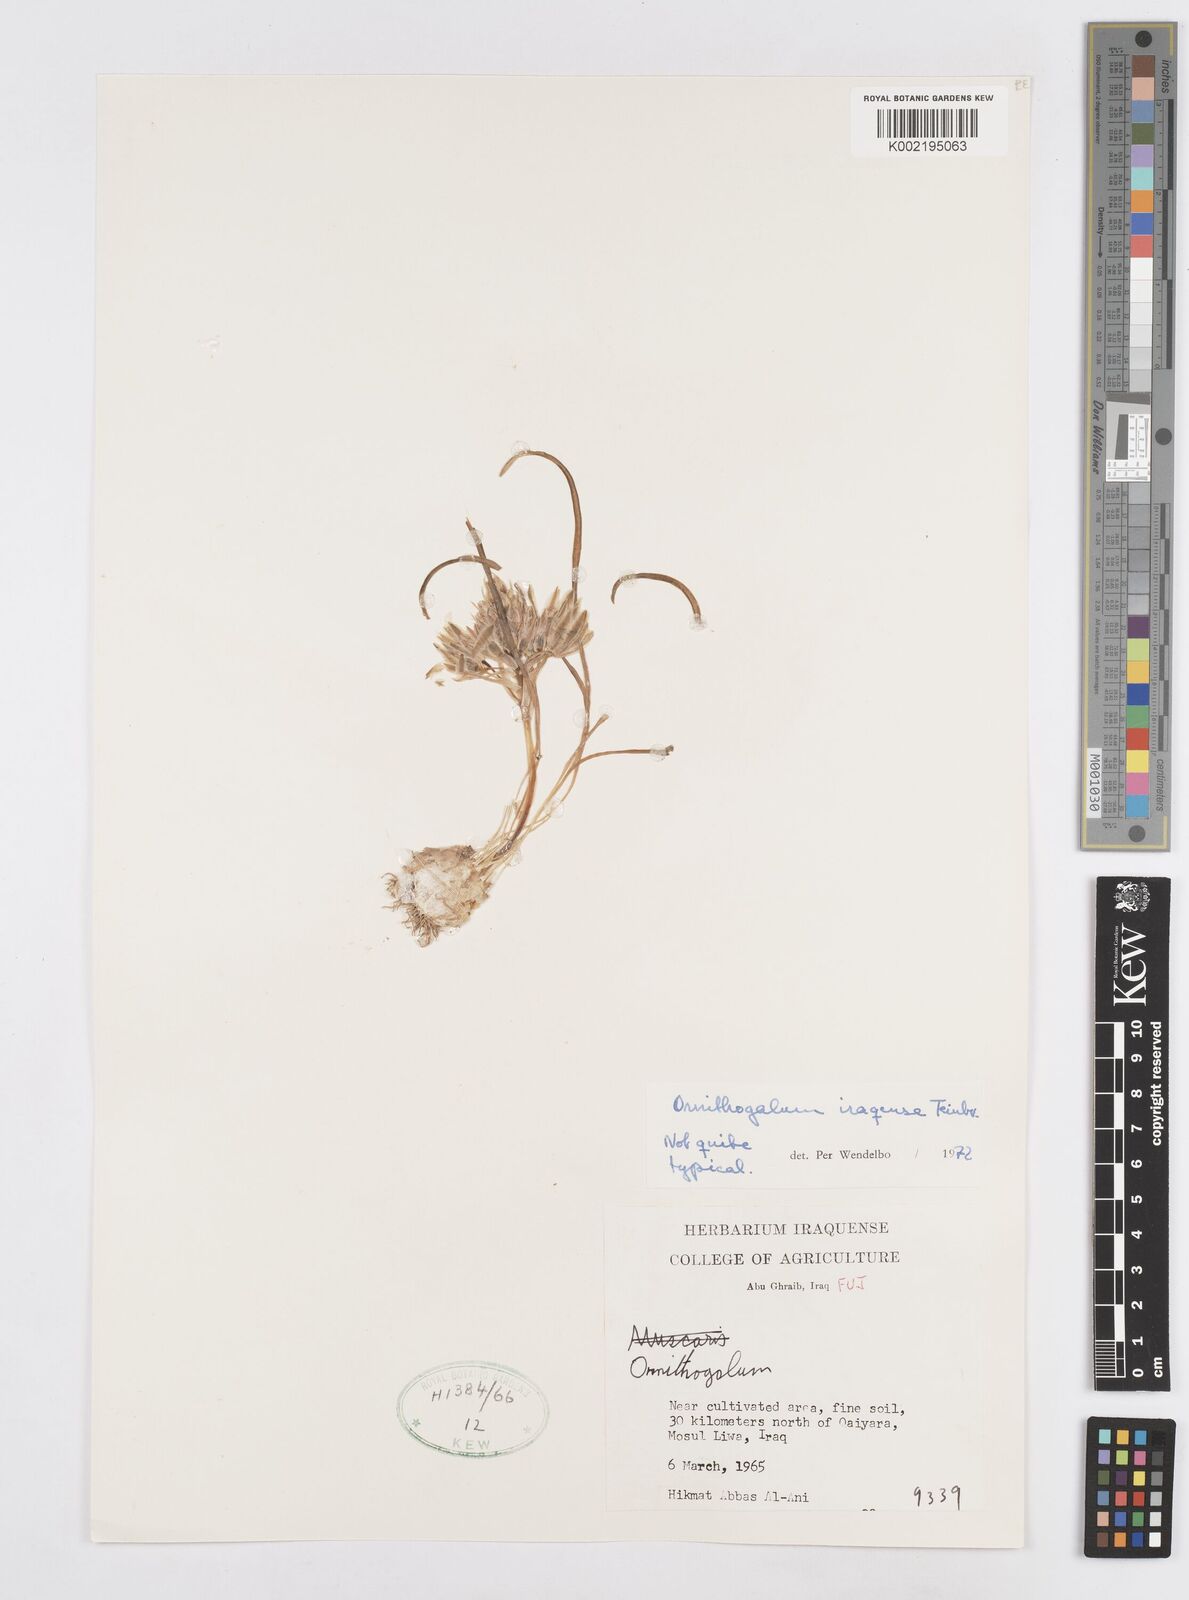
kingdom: Plantae
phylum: Tracheophyta
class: Liliopsida
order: Asparagales
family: Asparagaceae
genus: Ornithogalum
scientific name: Ornithogalum iraqense
